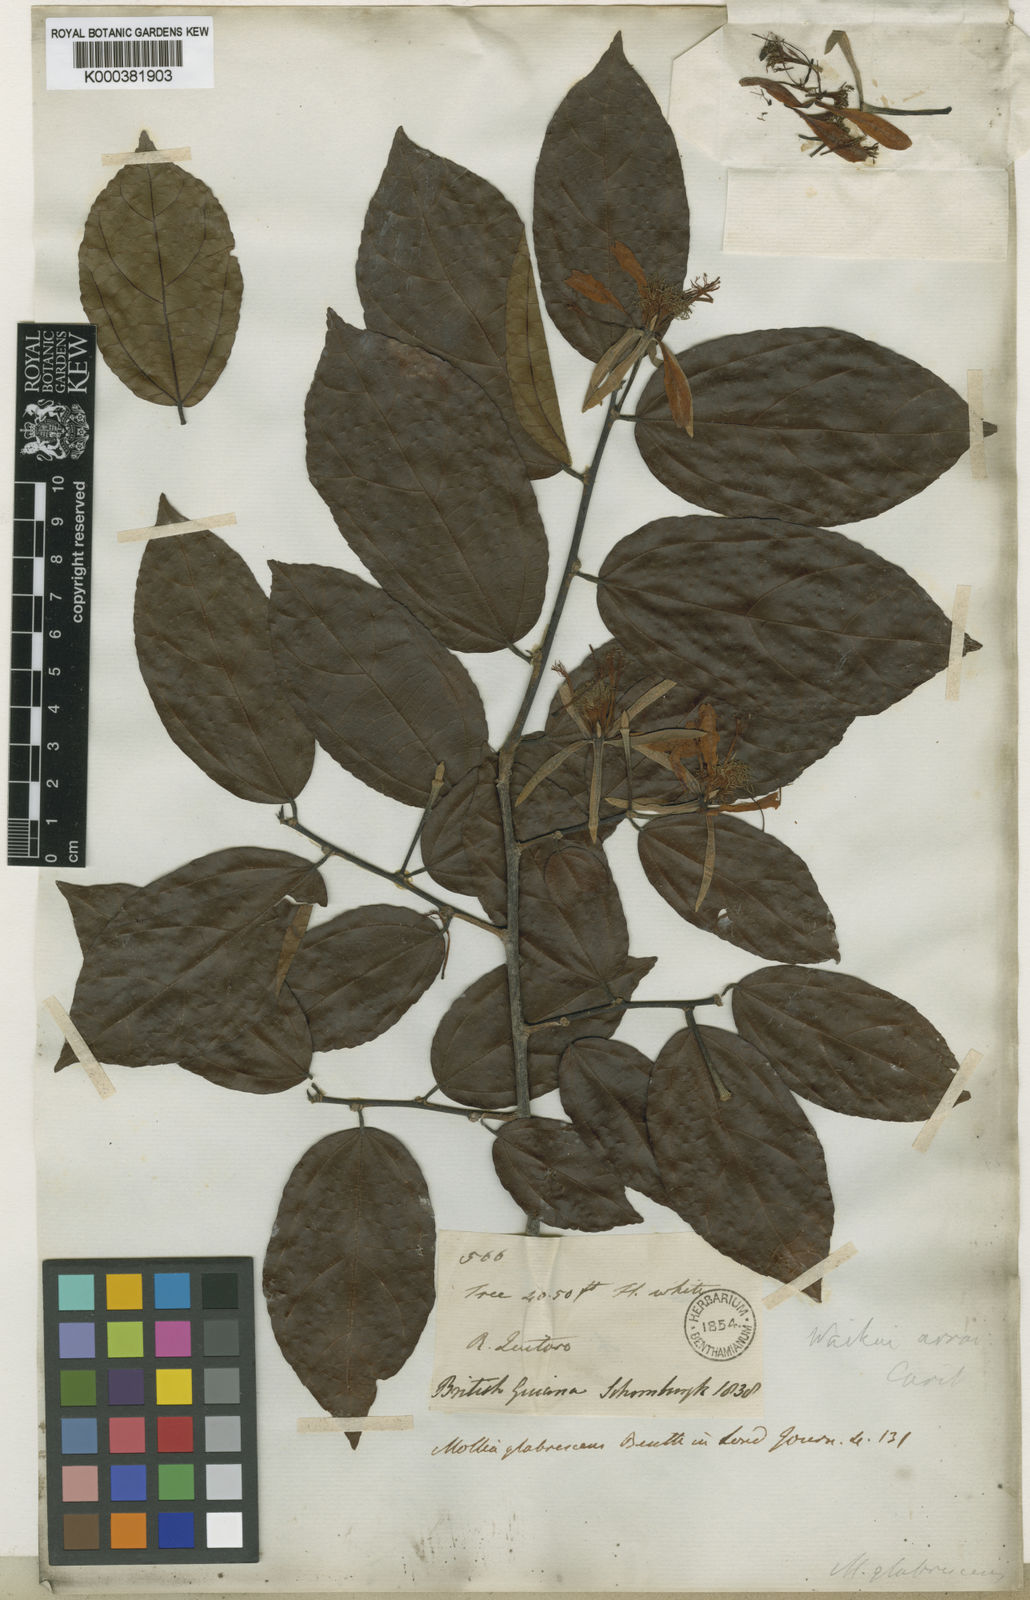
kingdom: Plantae
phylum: Tracheophyta
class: Magnoliopsida
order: Malvales
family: Malvaceae
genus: Mollia
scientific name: Mollia glabrescens
